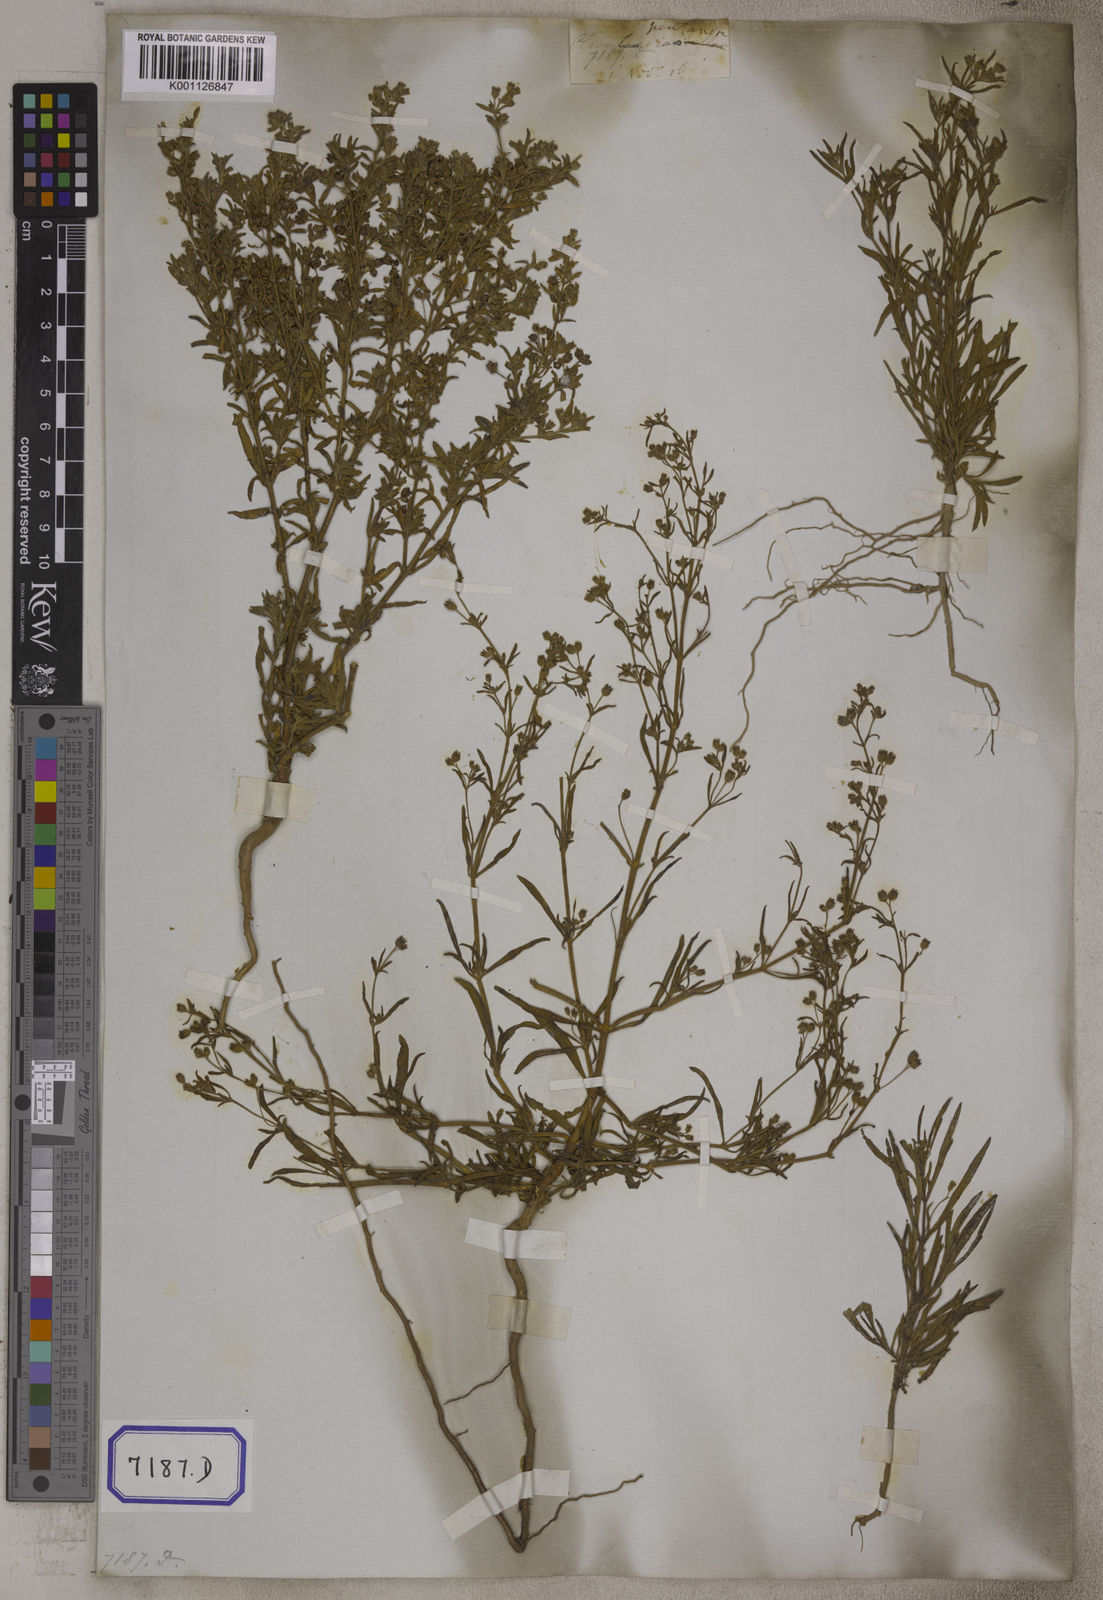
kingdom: Plantae
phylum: Tracheophyta
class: Magnoliopsida
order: Vahliales
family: Vahliaceae
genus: Vahlia
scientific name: Vahlia dichotoma
